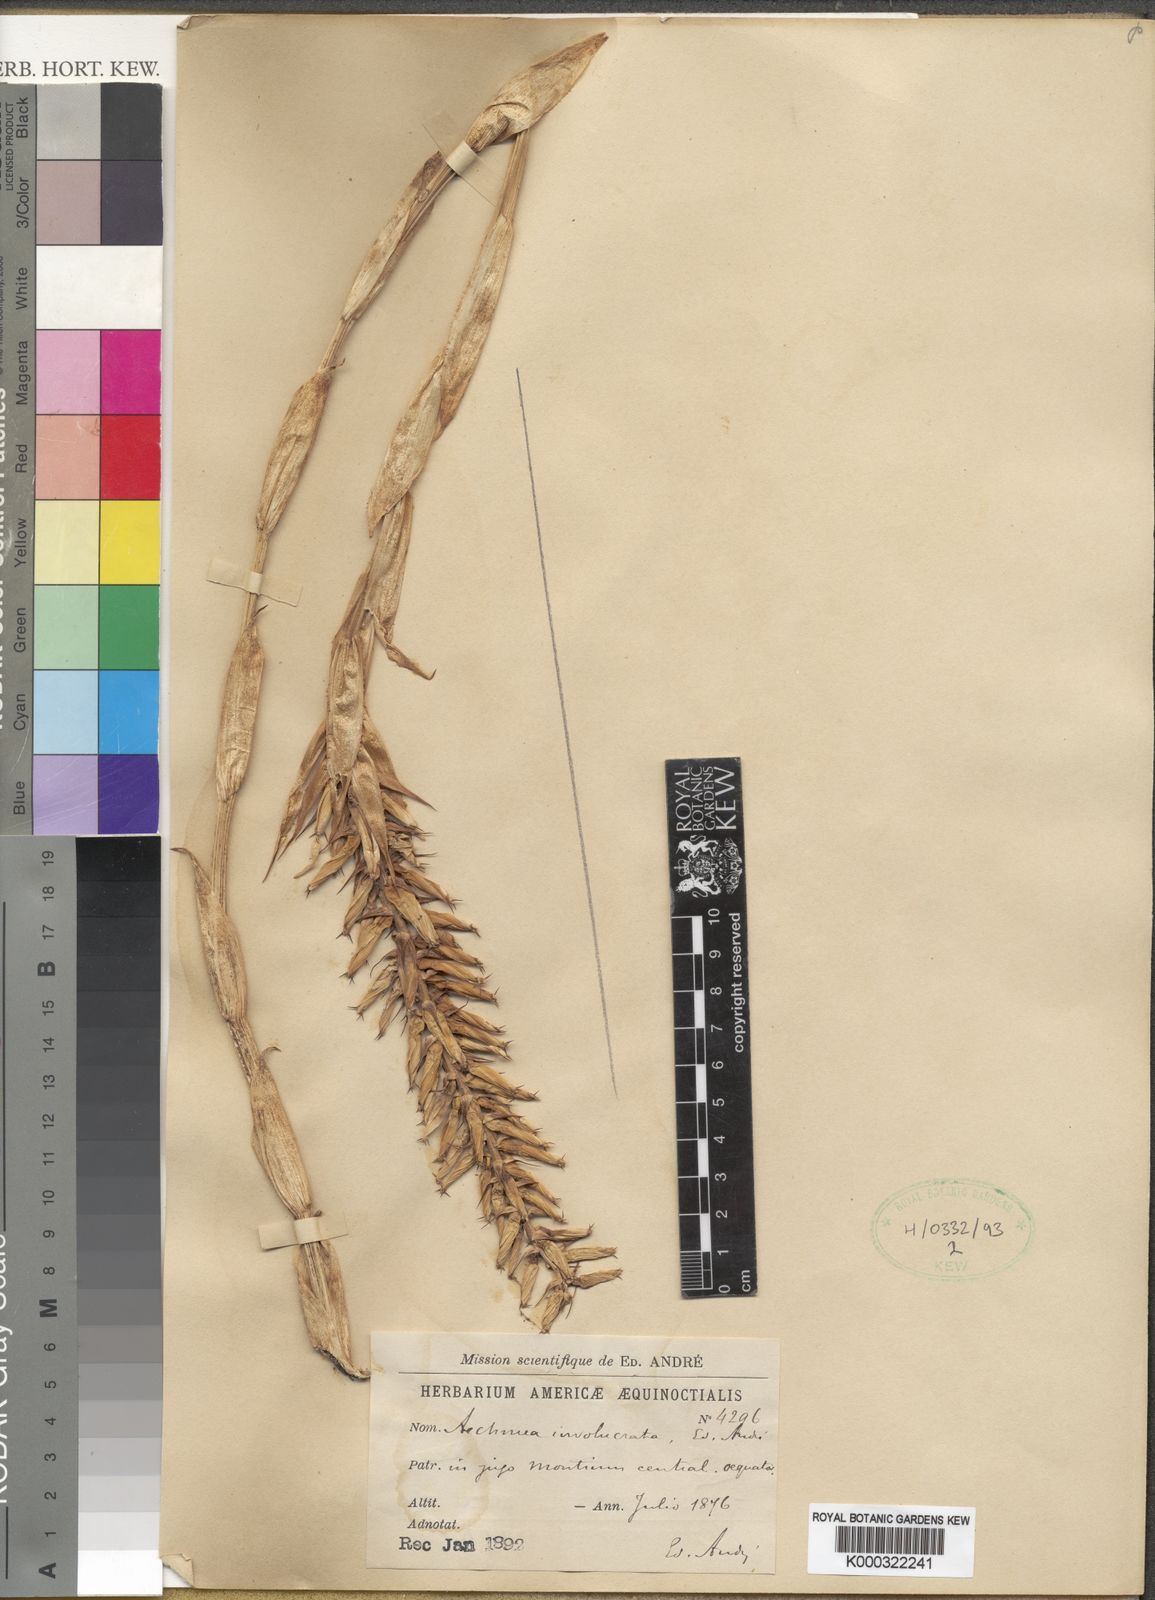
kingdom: Plantae
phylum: Tracheophyta
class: Liliopsida
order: Poales
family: Bromeliaceae
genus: Aechmea
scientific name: Aechmea
